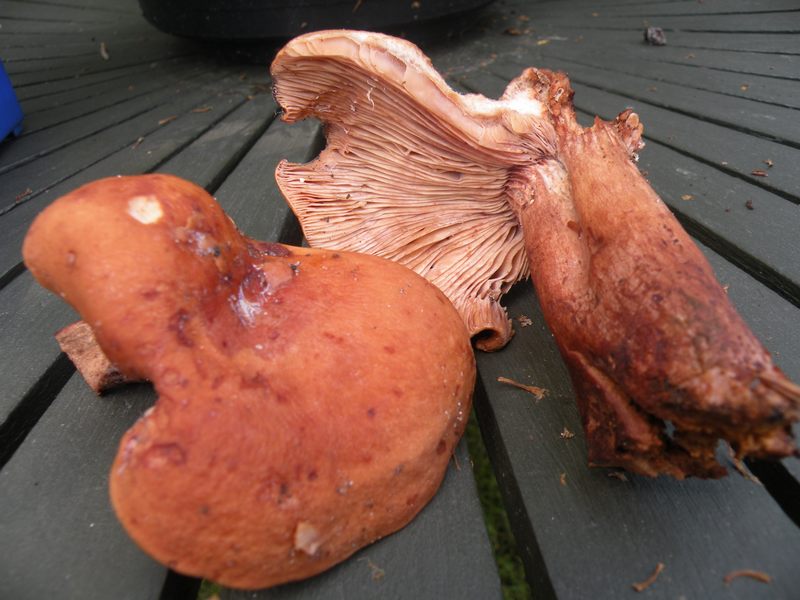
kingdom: Fungi
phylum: Basidiomycota
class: Agaricomycetes
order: Russulales
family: Russulaceae
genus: Lactarius
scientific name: Lactarius rubrocinctus
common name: halsbånd-mælkehat
